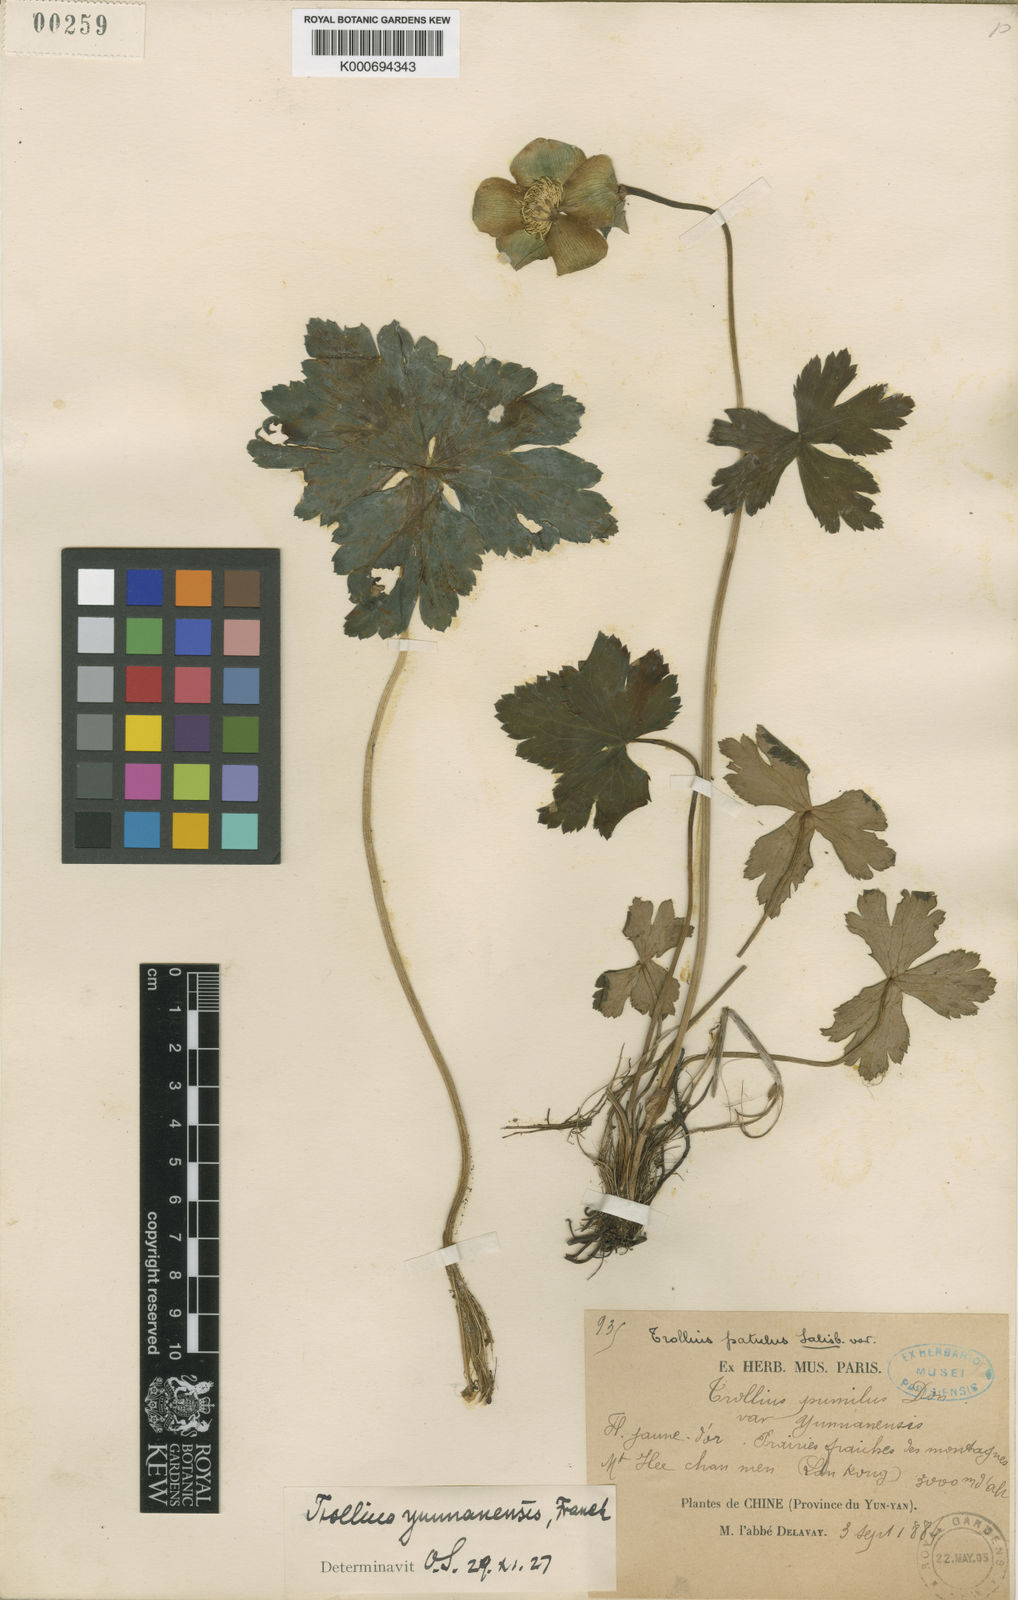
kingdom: Plantae
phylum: Tracheophyta
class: Magnoliopsida
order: Ranunculales
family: Ranunculaceae
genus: Trollius
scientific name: Trollius yunnanensis
